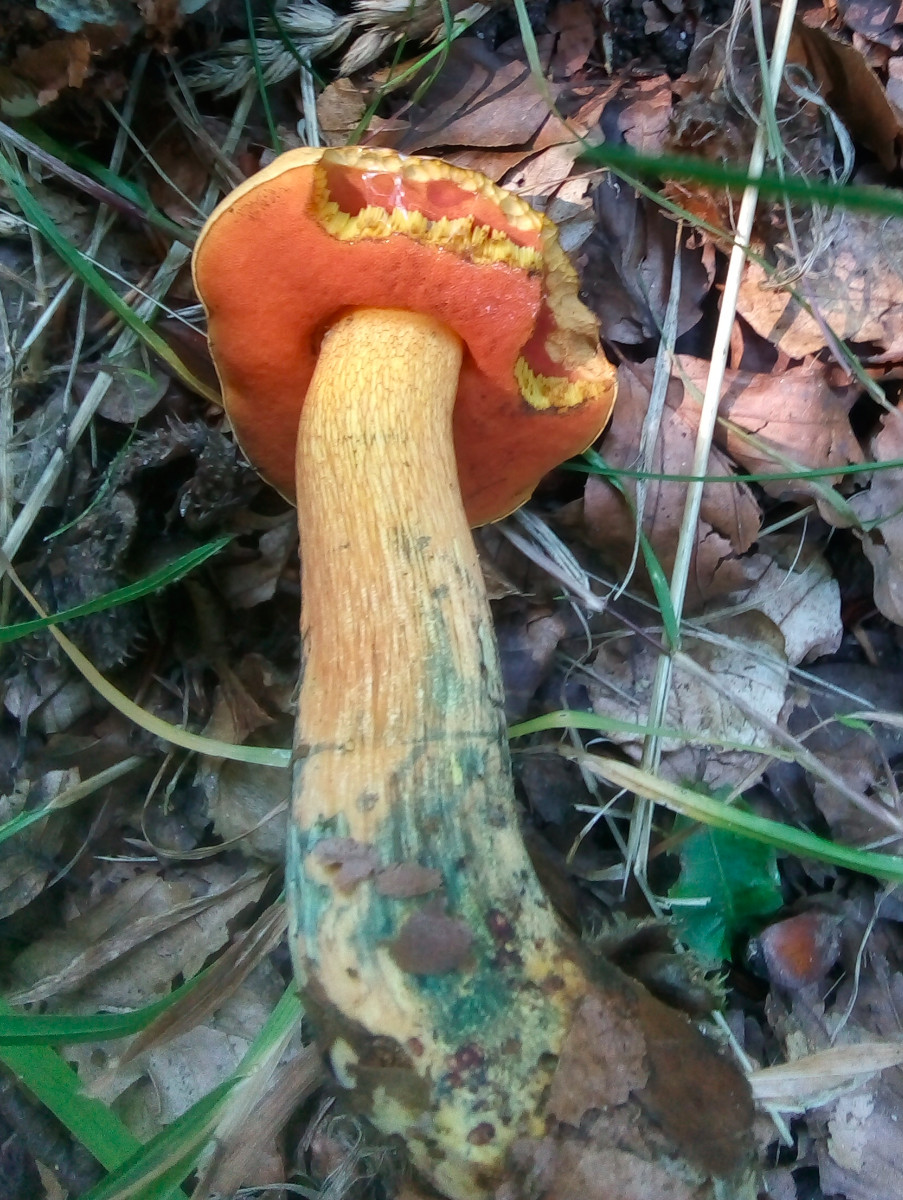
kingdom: Fungi
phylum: Basidiomycota
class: Agaricomycetes
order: Boletales
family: Boletaceae
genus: Suillellus
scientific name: Suillellus luridus
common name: netstokket indigorørhat
